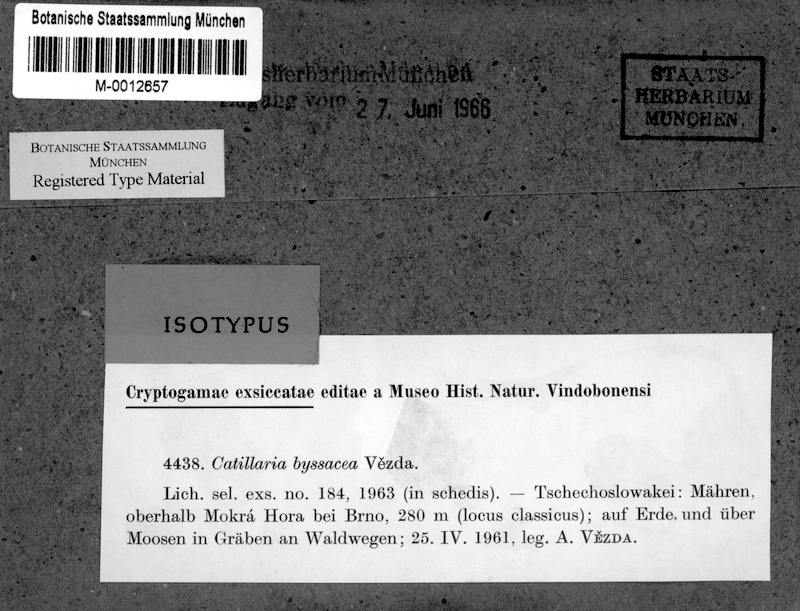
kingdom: Fungi
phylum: Ascomycota
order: Vezdaeales
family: Vezdaeaceae
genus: Vezdaea
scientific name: Vezdaea aestivalis
